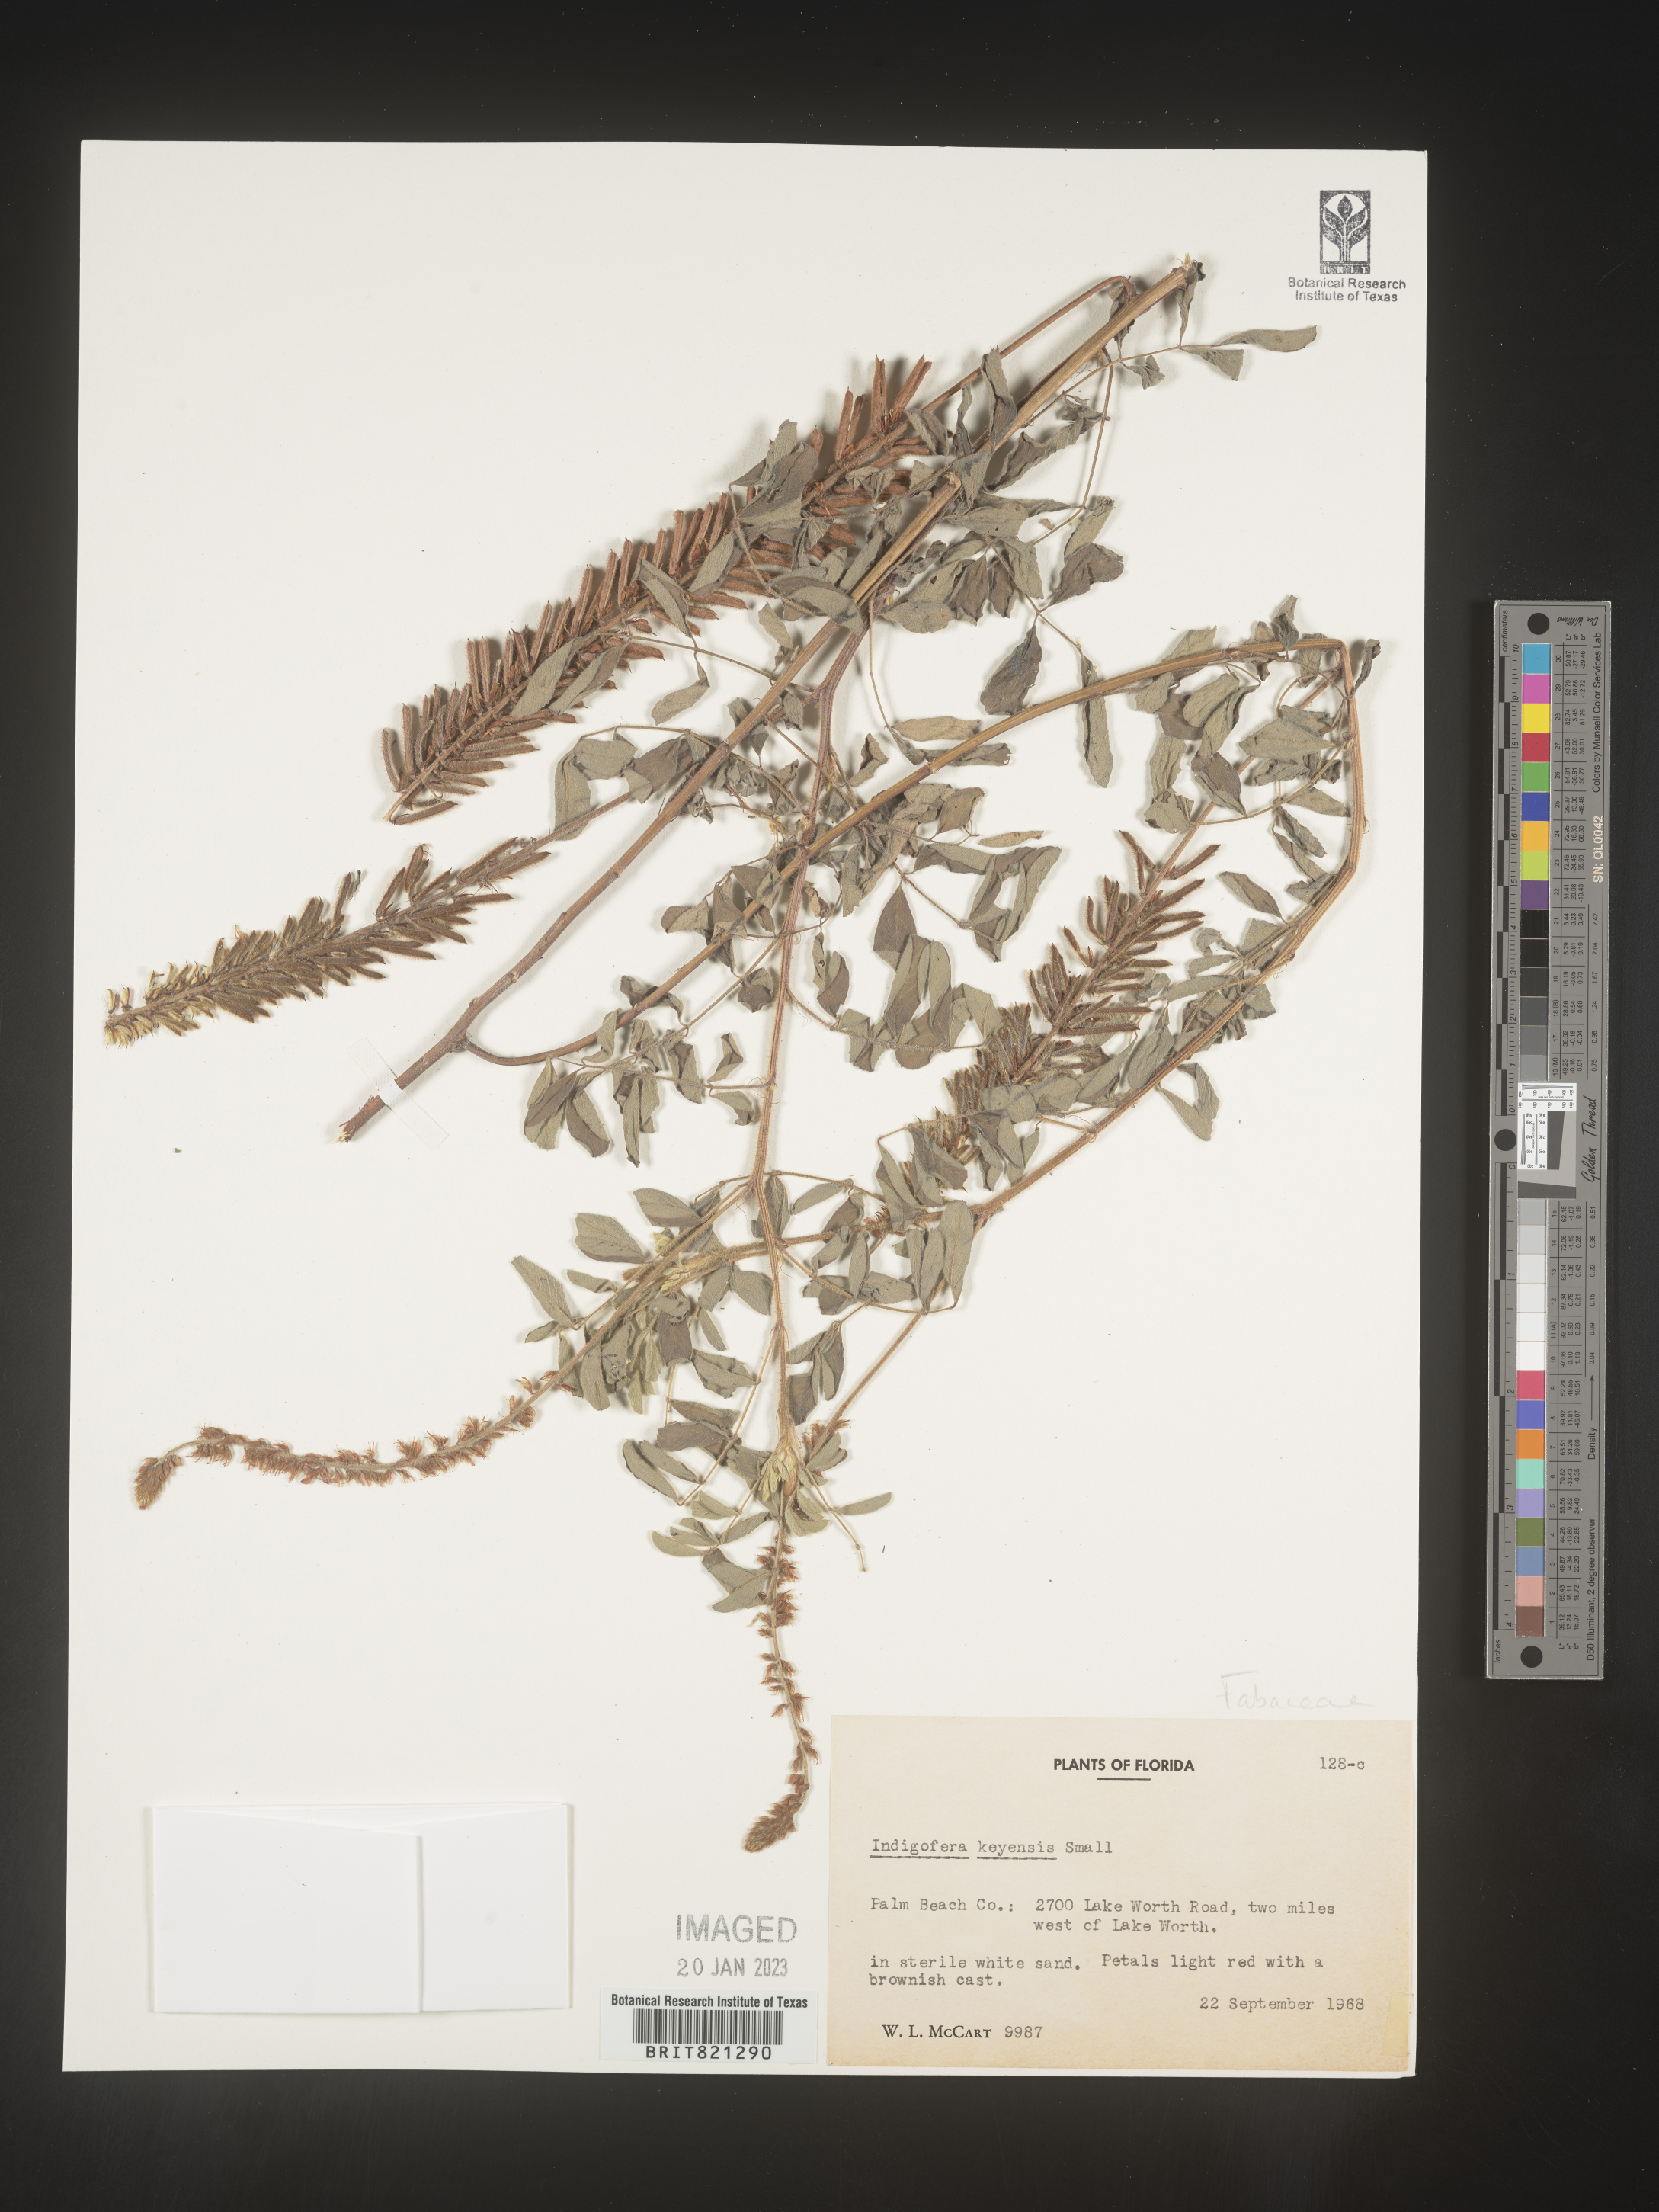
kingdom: Plantae
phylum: Tracheophyta
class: Magnoliopsida
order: Fabales
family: Fabaceae
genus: Indigofera
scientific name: Indigofera
